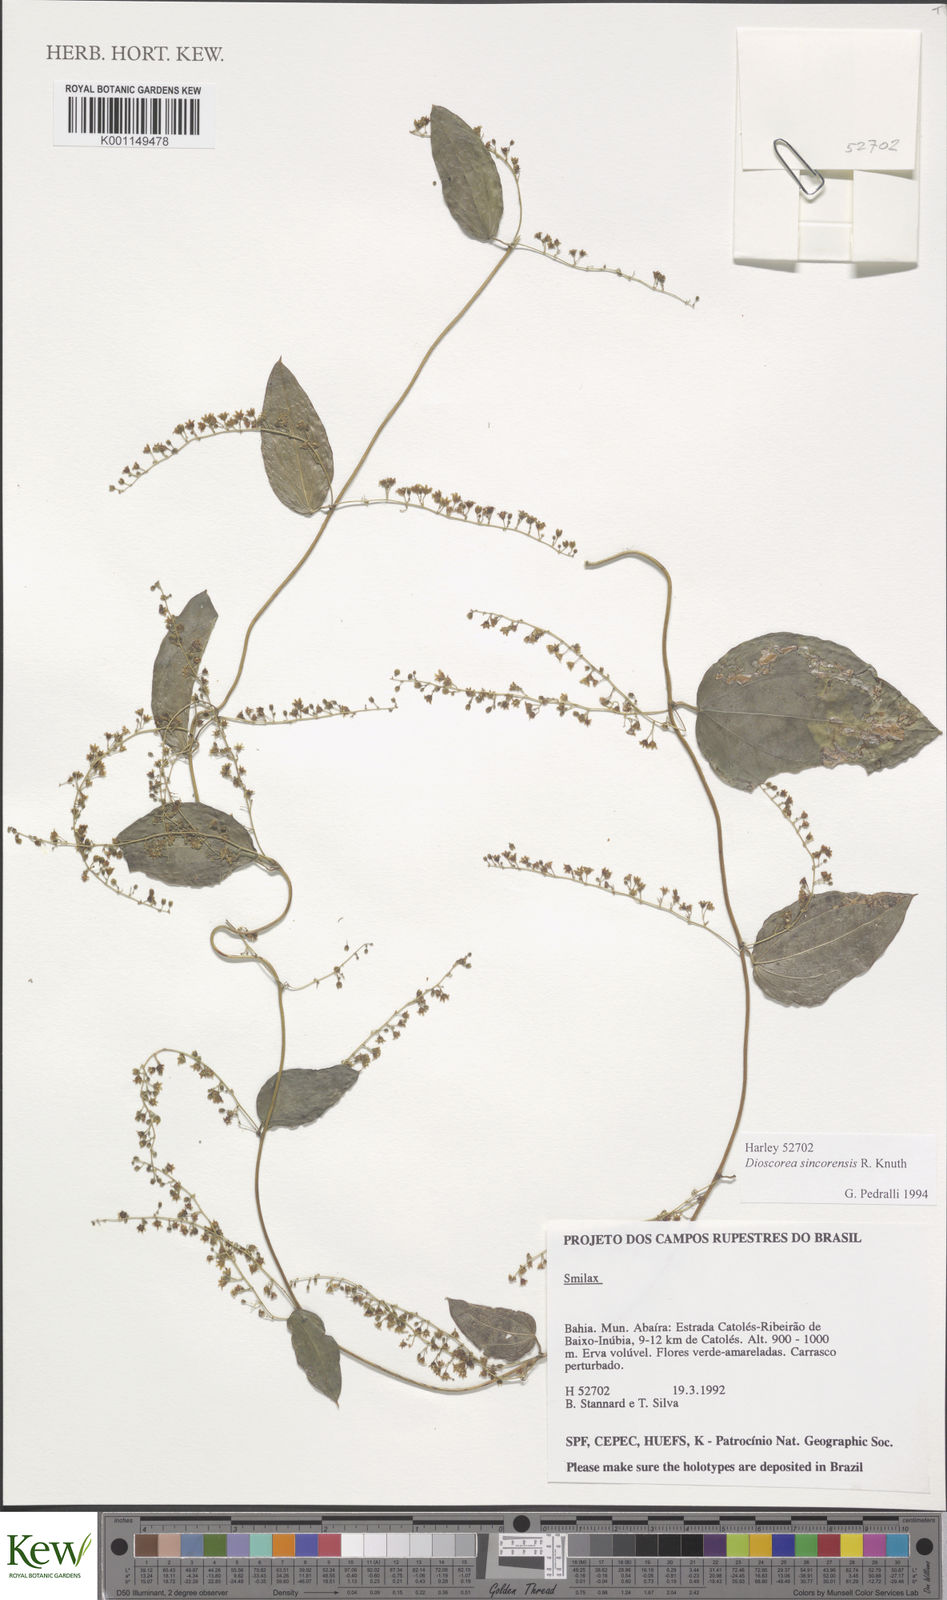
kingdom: Plantae
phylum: Tracheophyta
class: Liliopsida
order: Dioscoreales
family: Dioscoreaceae
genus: Dioscorea
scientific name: Dioscorea campestris
